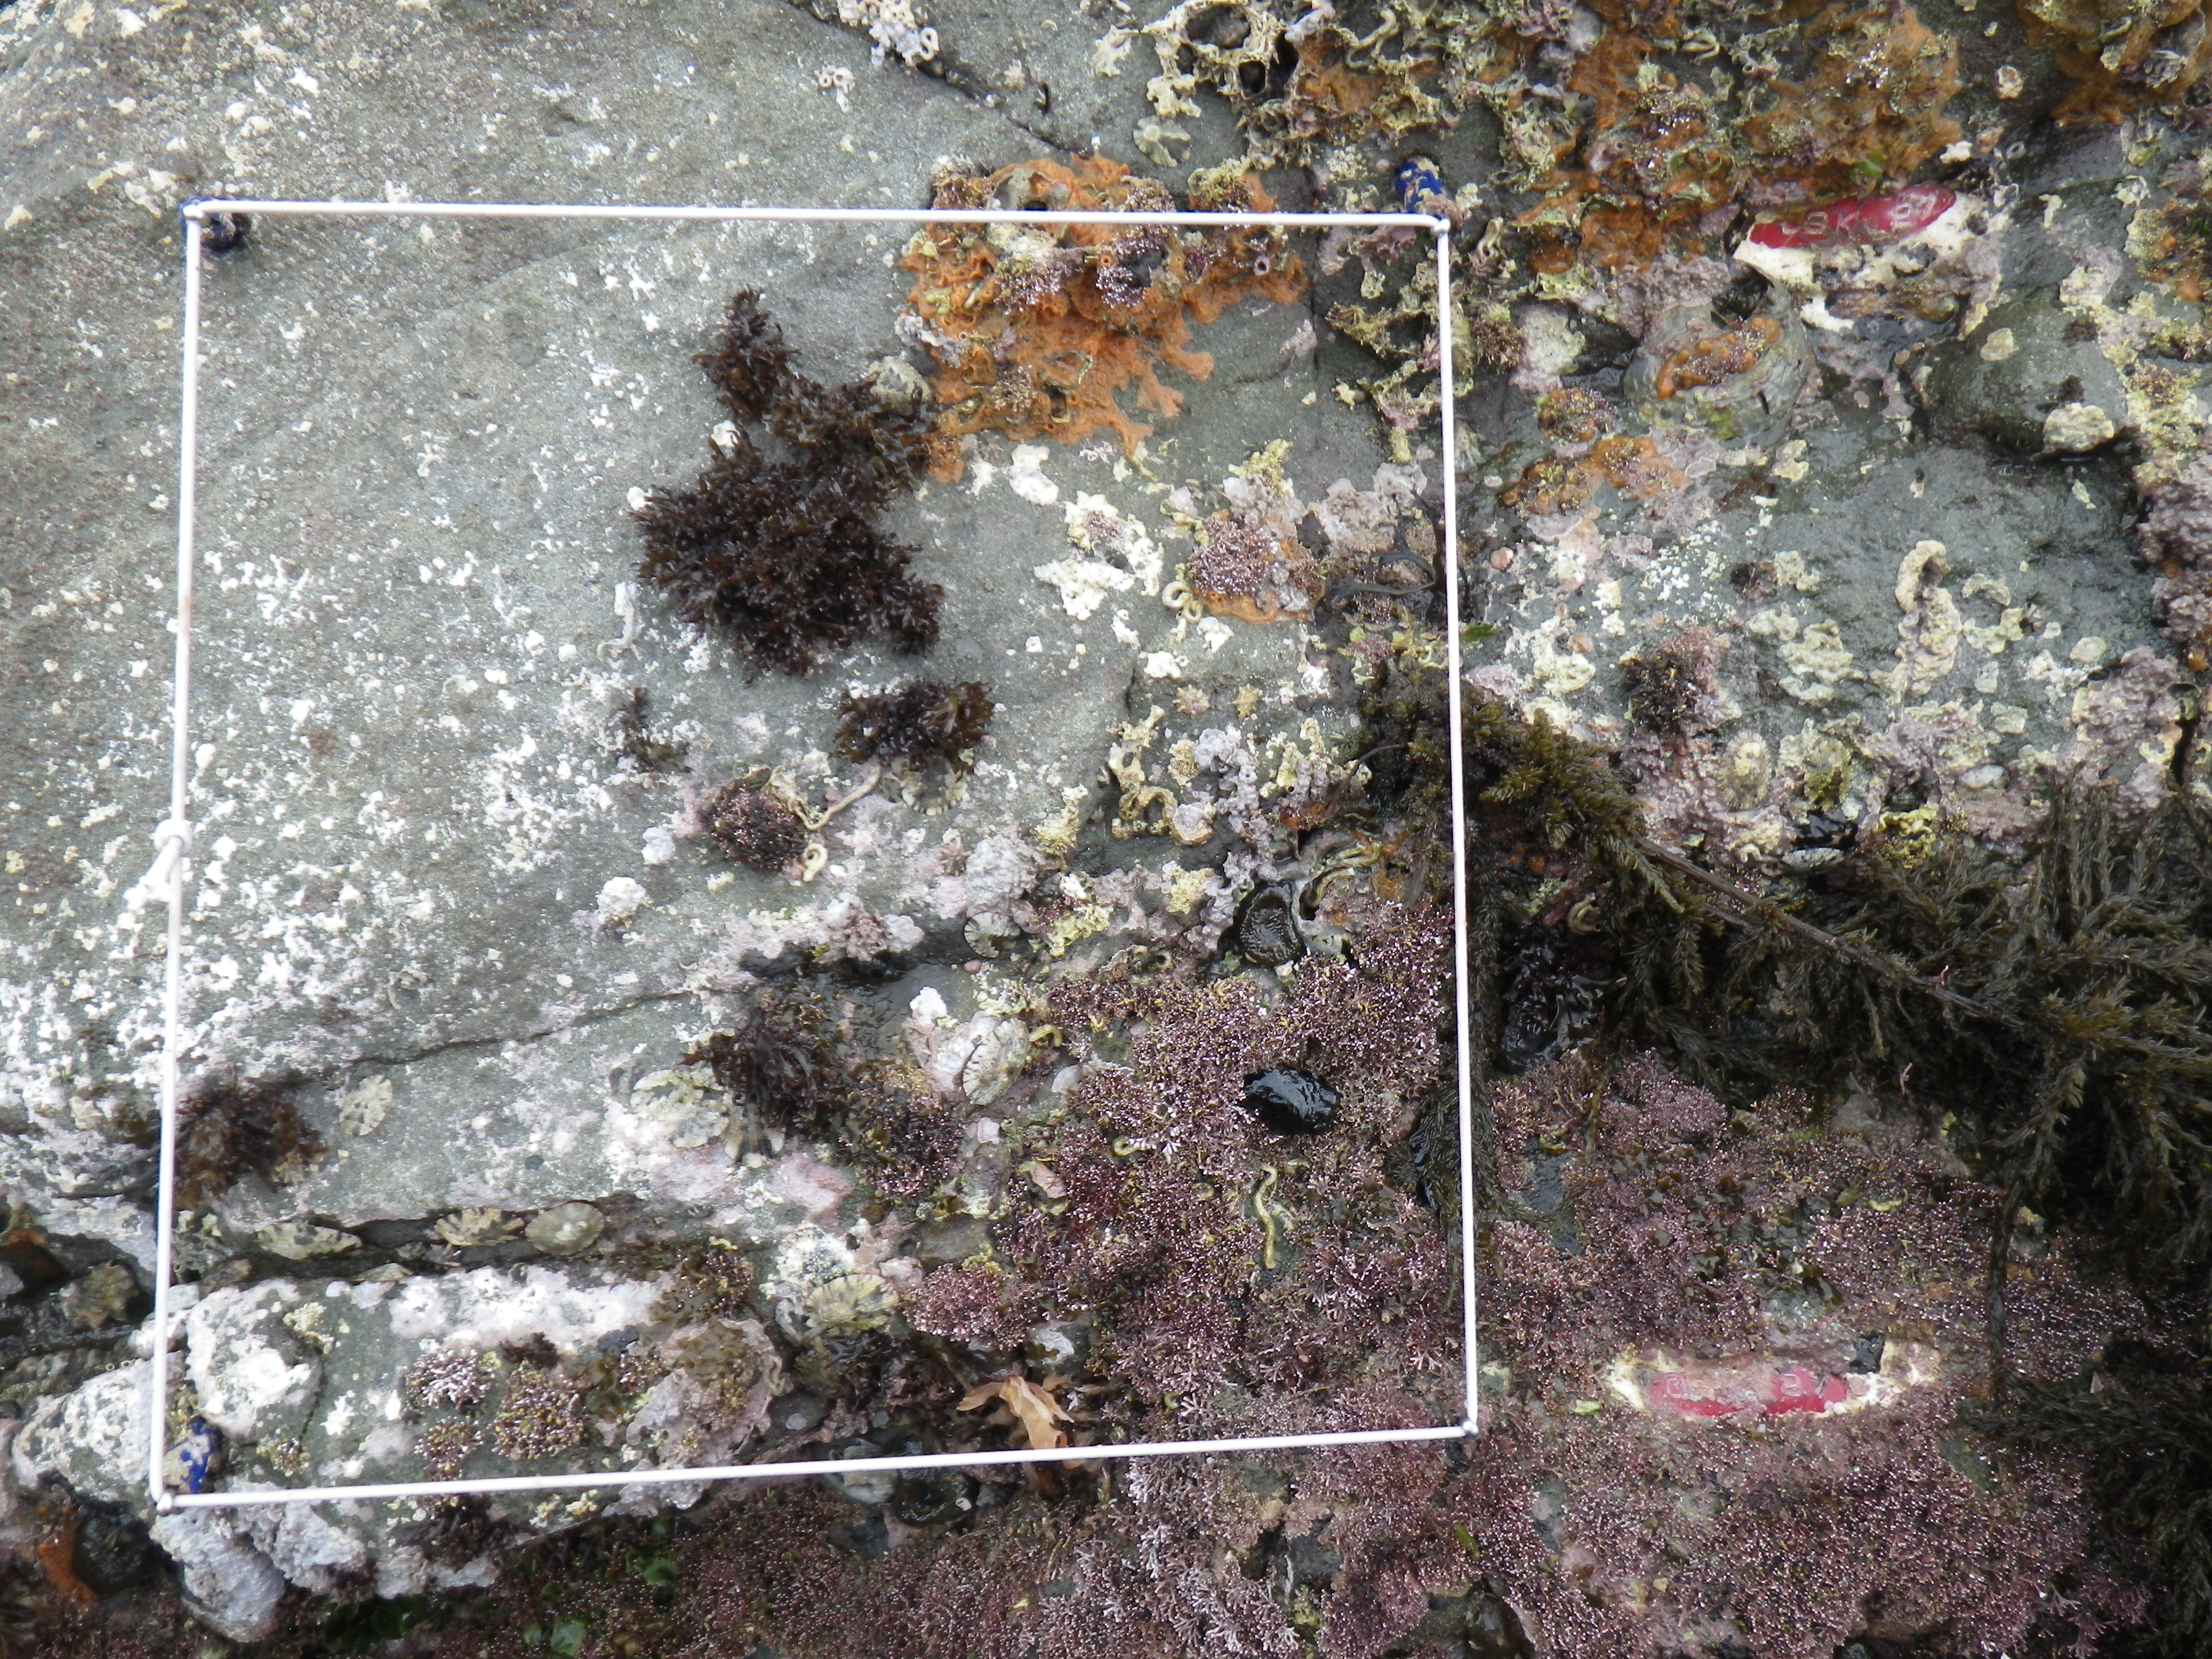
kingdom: Animalia
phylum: Arthropoda
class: Maxillopoda
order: Sessilia
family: Chthamalidae
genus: Chthamalus
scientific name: Chthamalus challengeri
